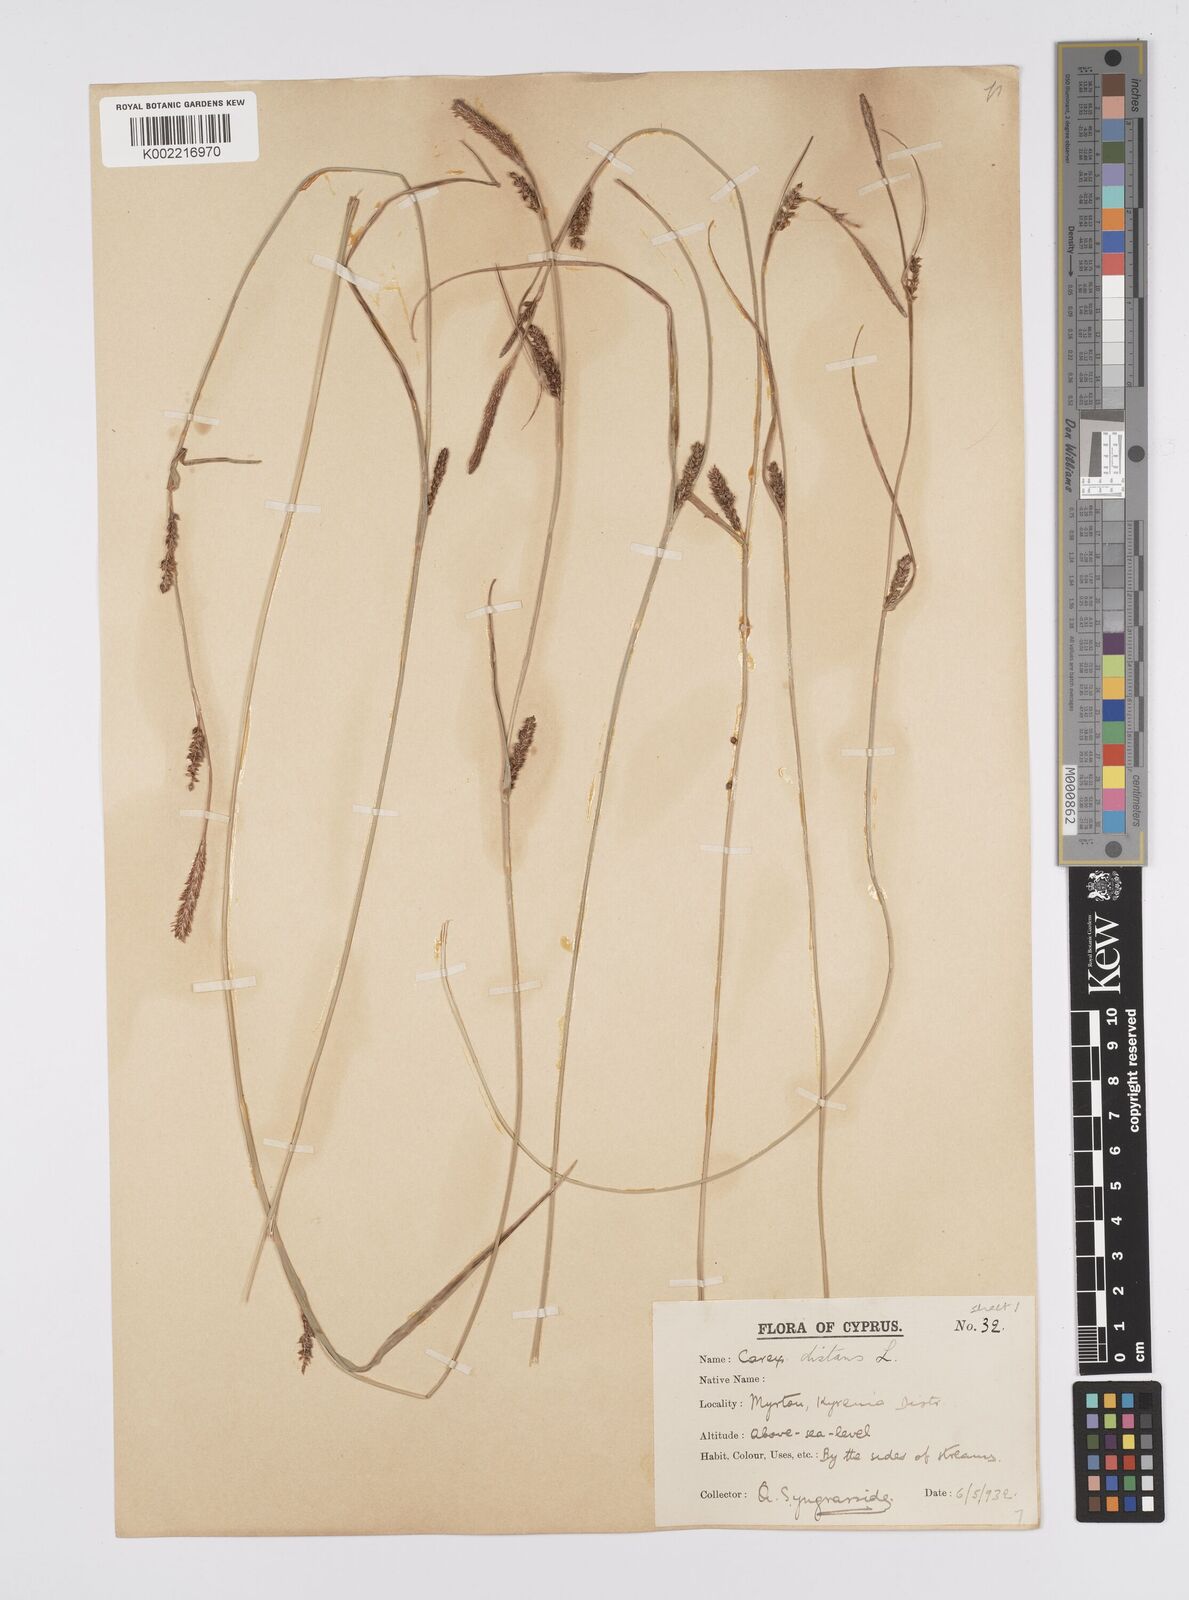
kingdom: Plantae
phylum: Tracheophyta
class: Liliopsida
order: Poales
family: Cyperaceae
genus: Carex
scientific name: Carex distans
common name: Distant sedge
